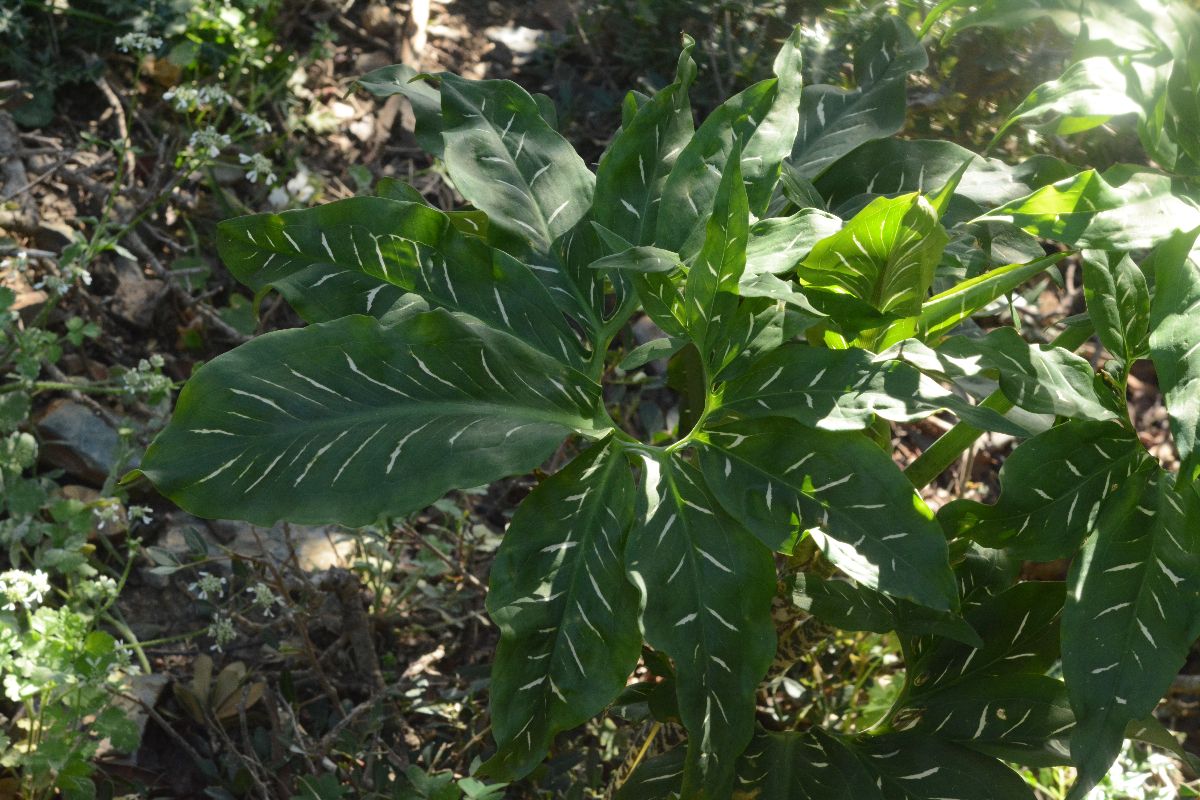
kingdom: Plantae
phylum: Tracheophyta
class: Liliopsida
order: Alismatales
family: Araceae
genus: Dracunculus
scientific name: Dracunculus vulgaris
